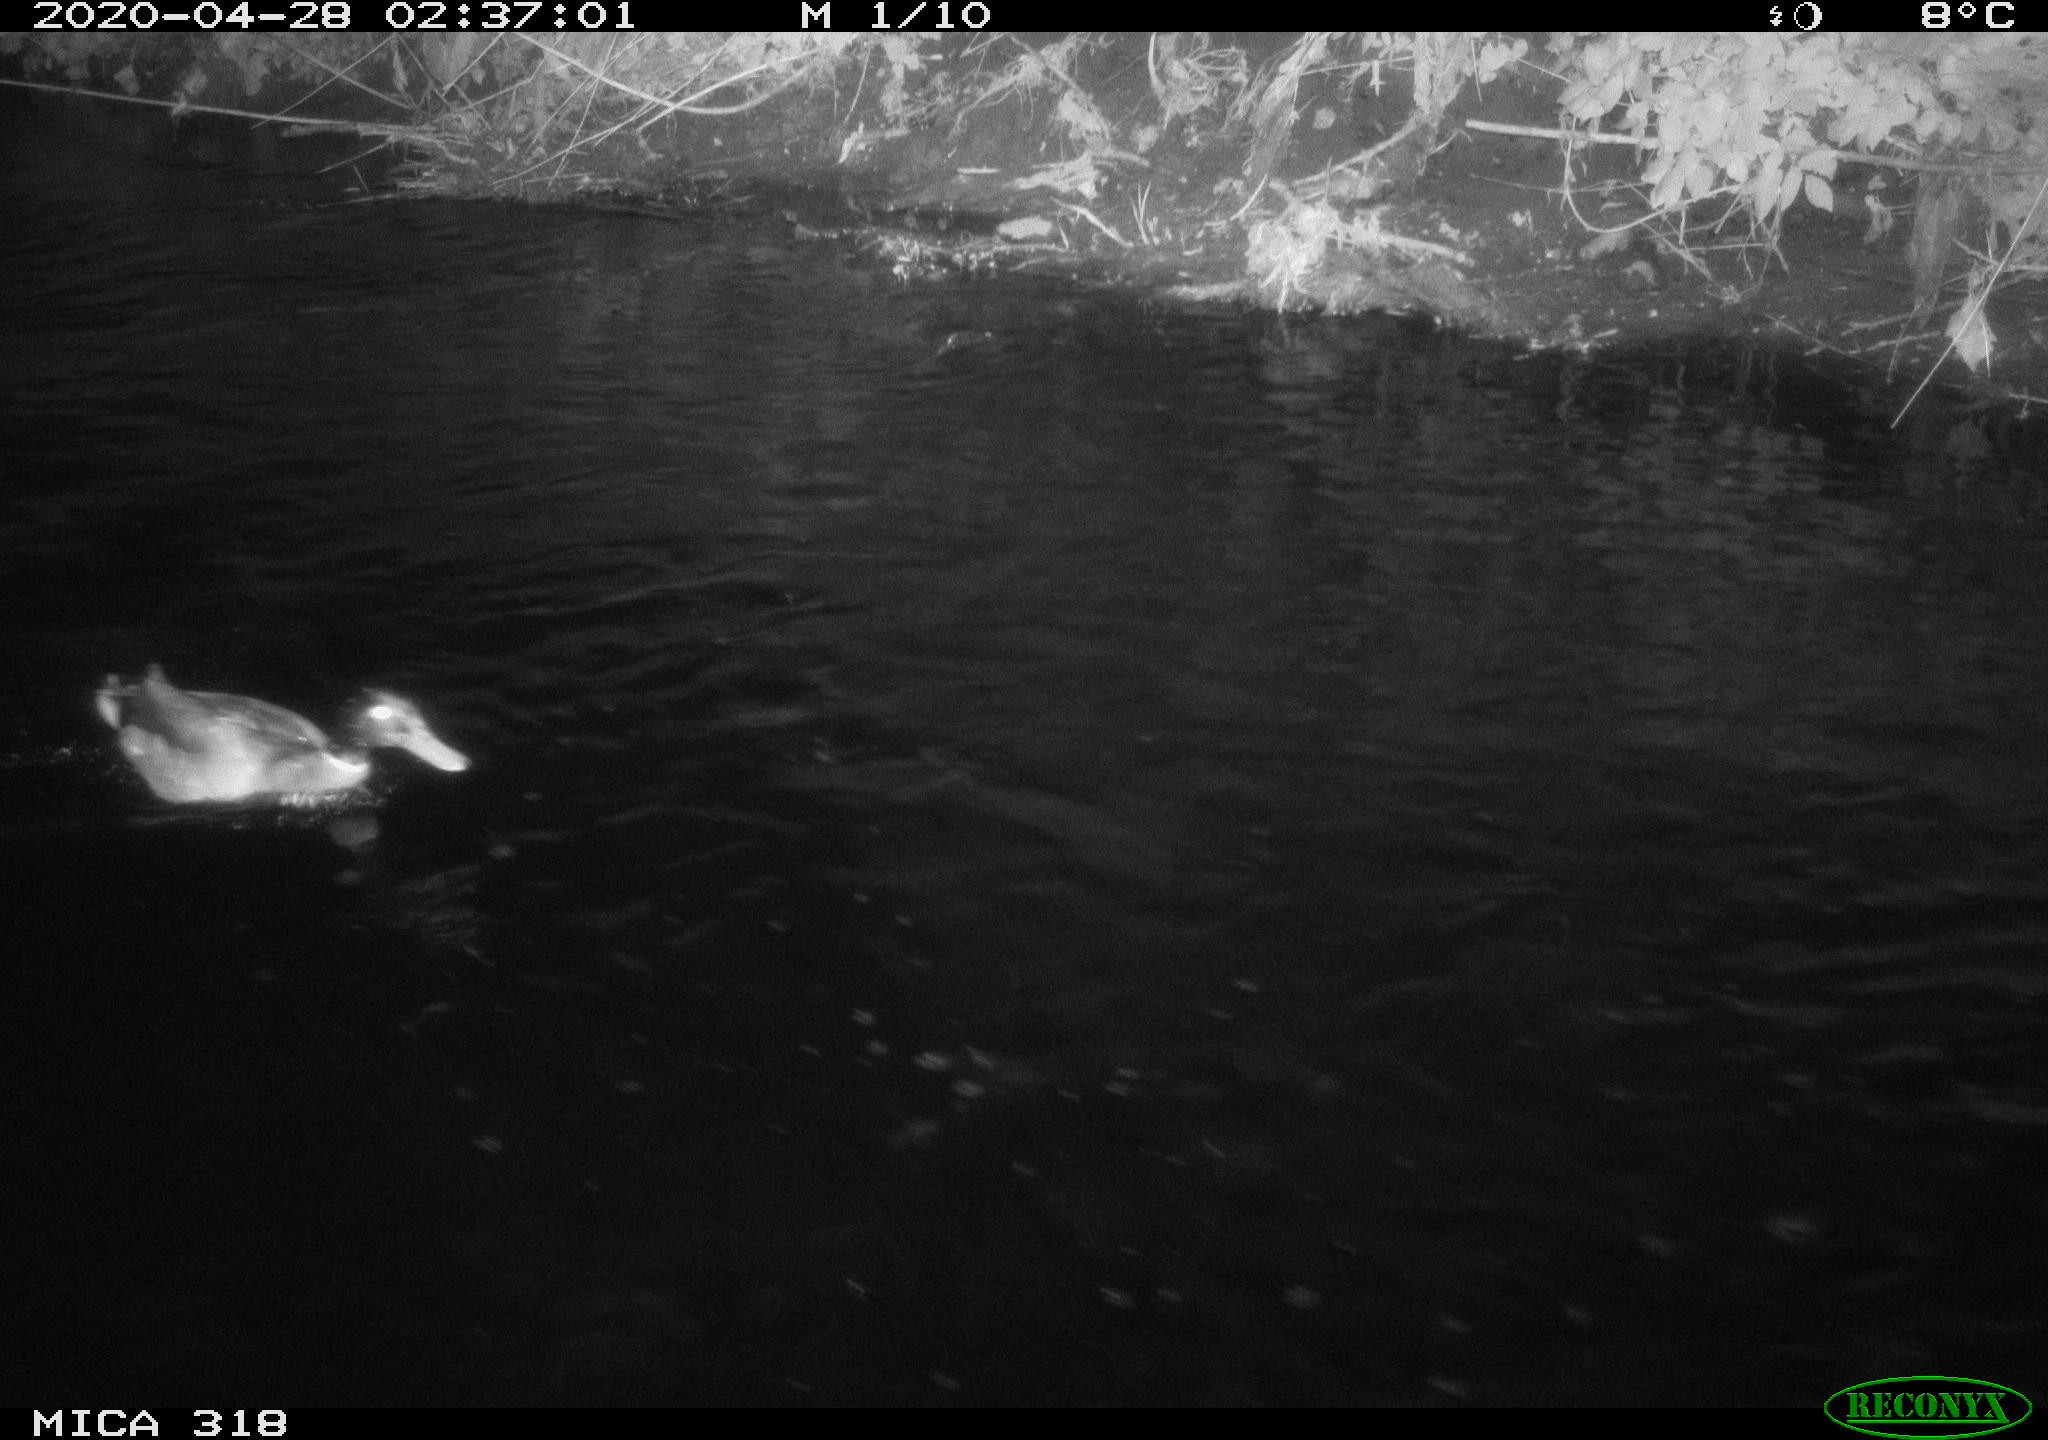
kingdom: Animalia
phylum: Chordata
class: Aves
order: Anseriformes
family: Anatidae
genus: Anas
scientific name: Anas platyrhynchos
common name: Mallard
